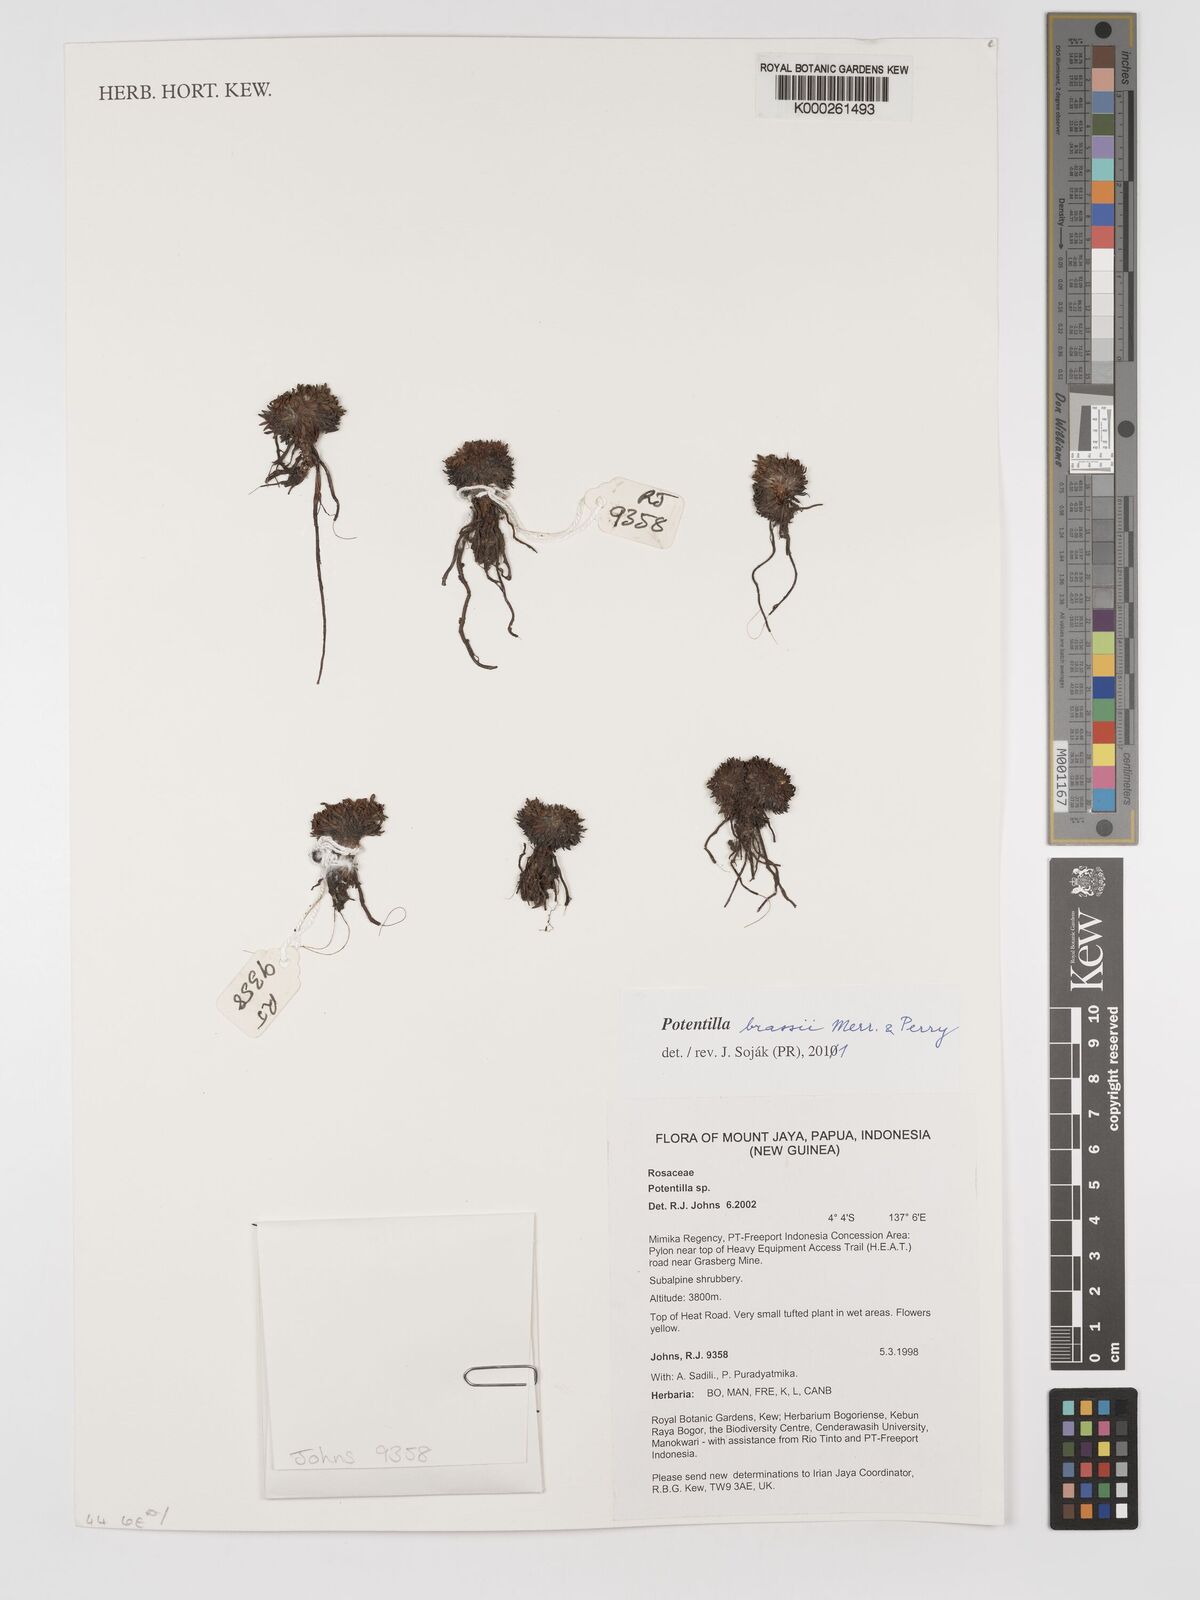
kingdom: Plantae
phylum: Tracheophyta
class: Magnoliopsida
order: Rosales
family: Rosaceae
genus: Argentina
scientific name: Argentina brassii
